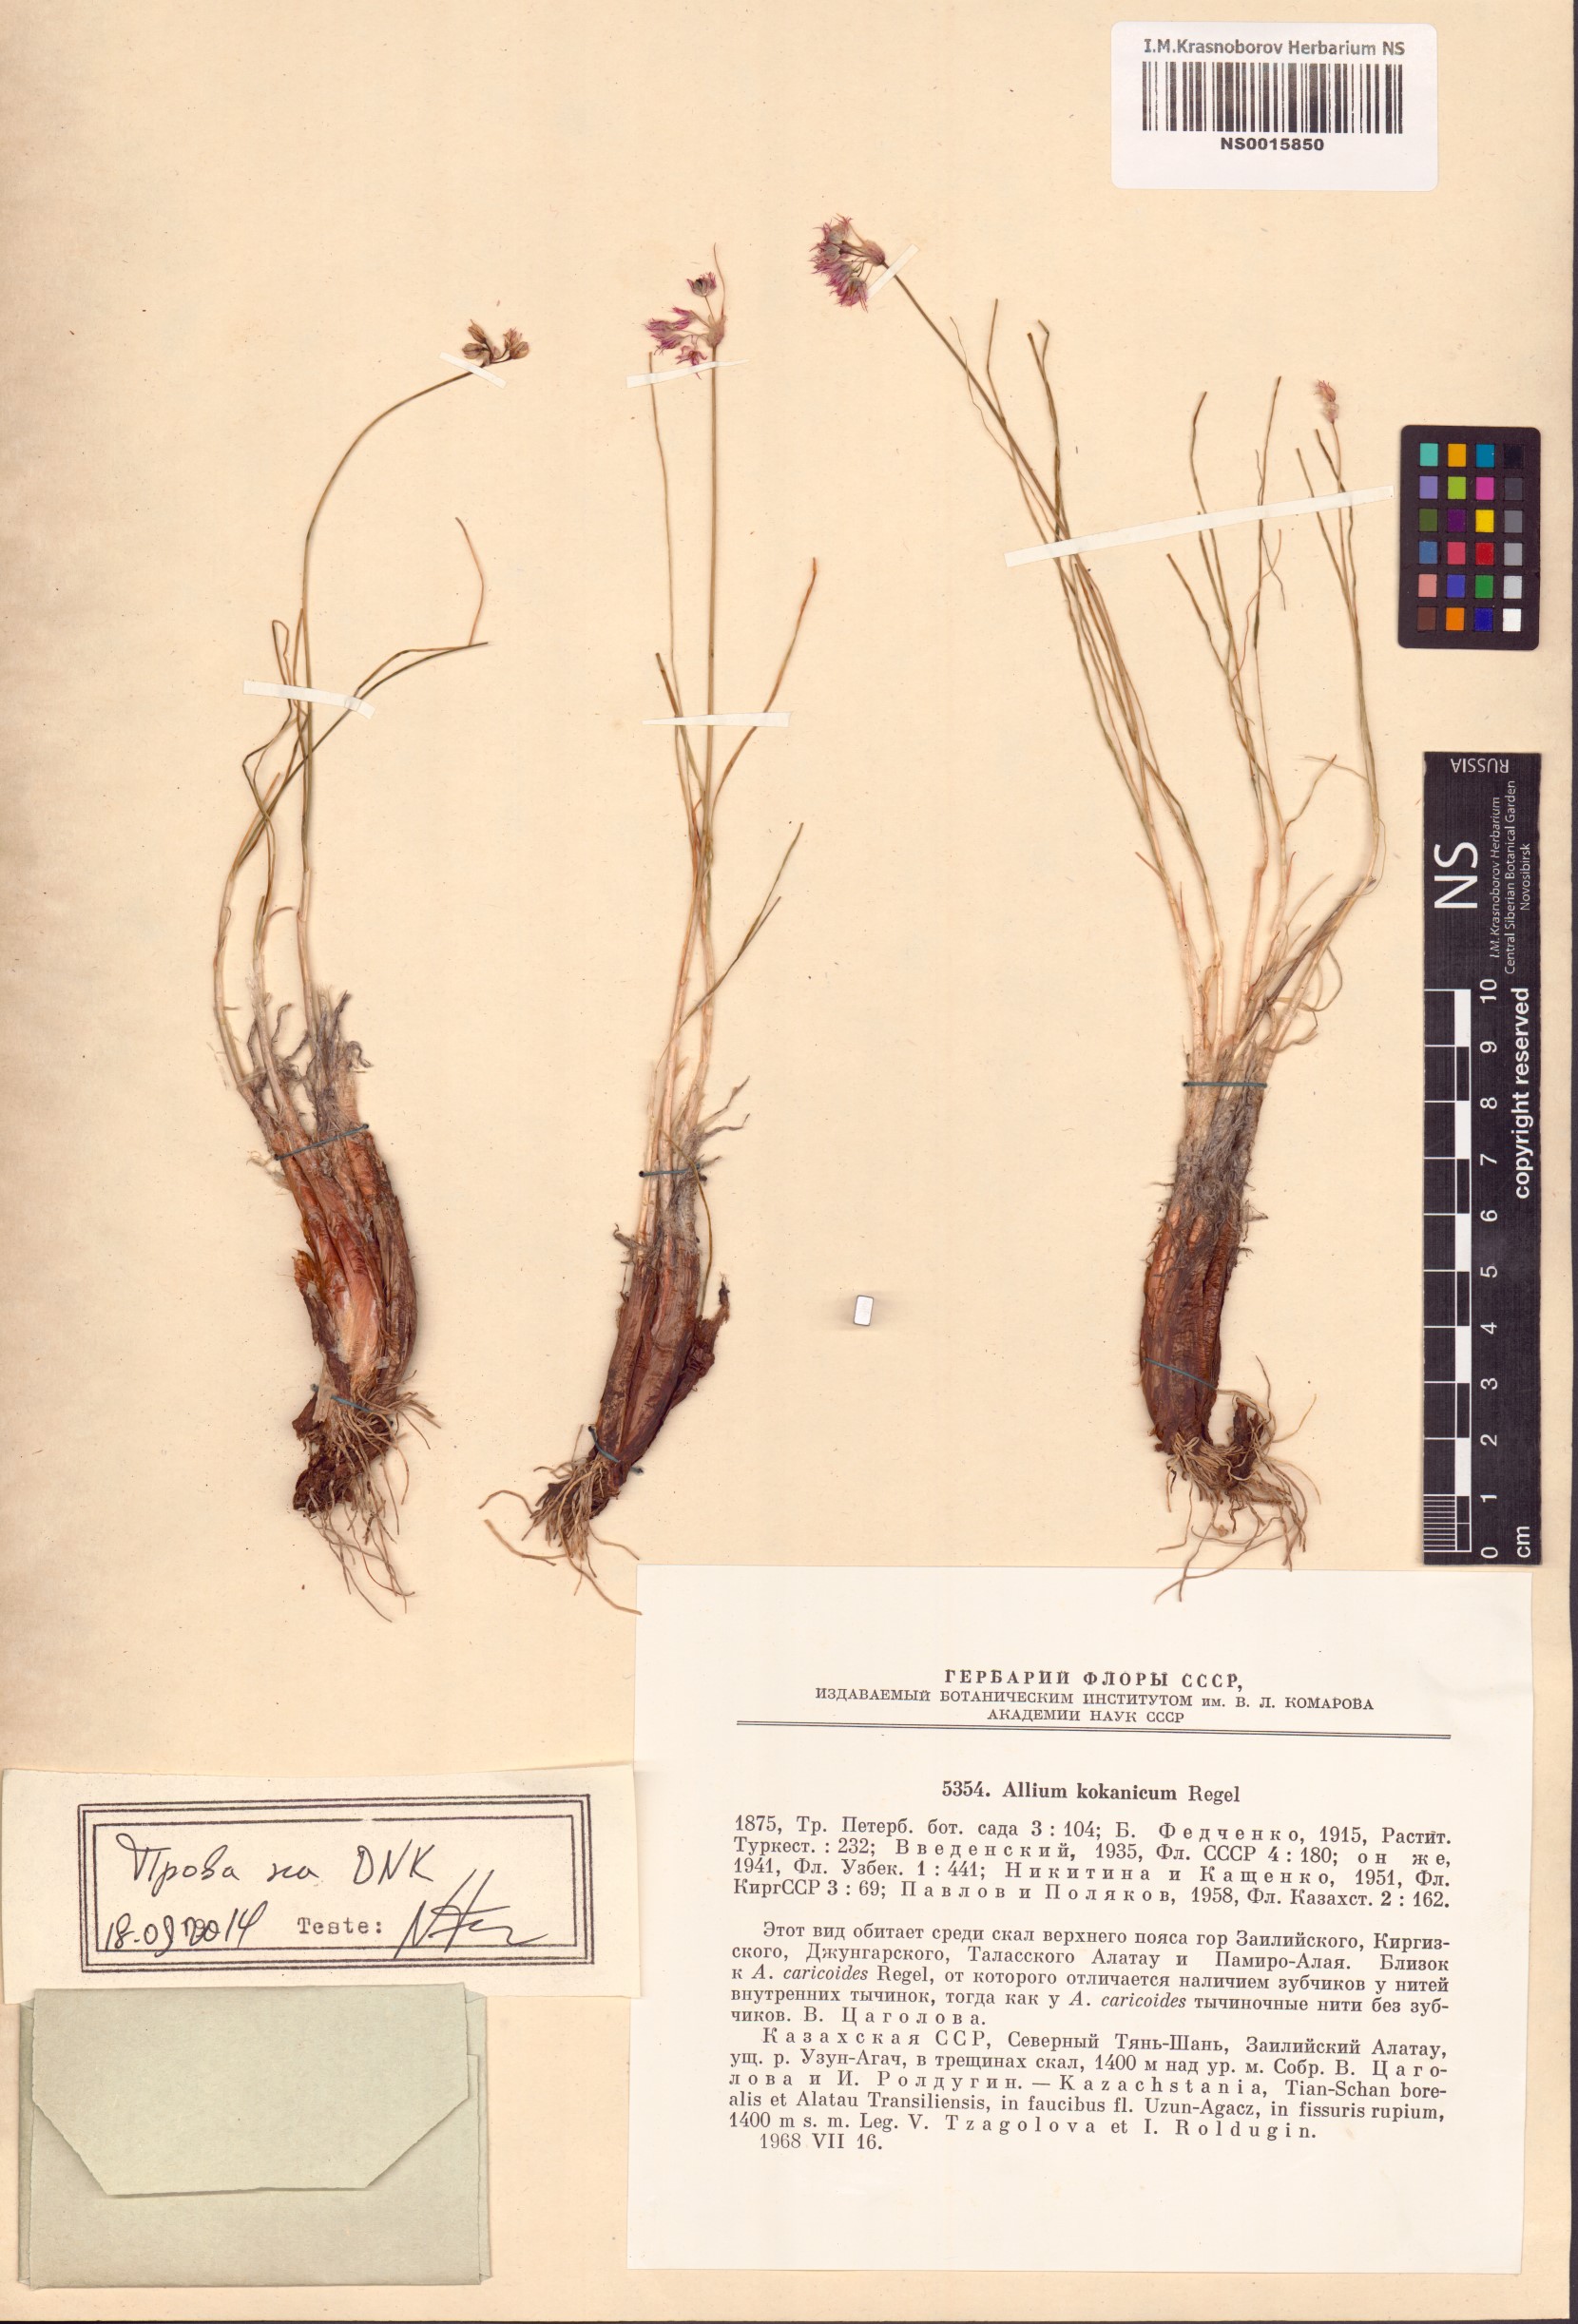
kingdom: Plantae
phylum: Tracheophyta
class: Liliopsida
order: Asparagales
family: Amaryllidaceae
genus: Allium
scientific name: Allium kokanicum
